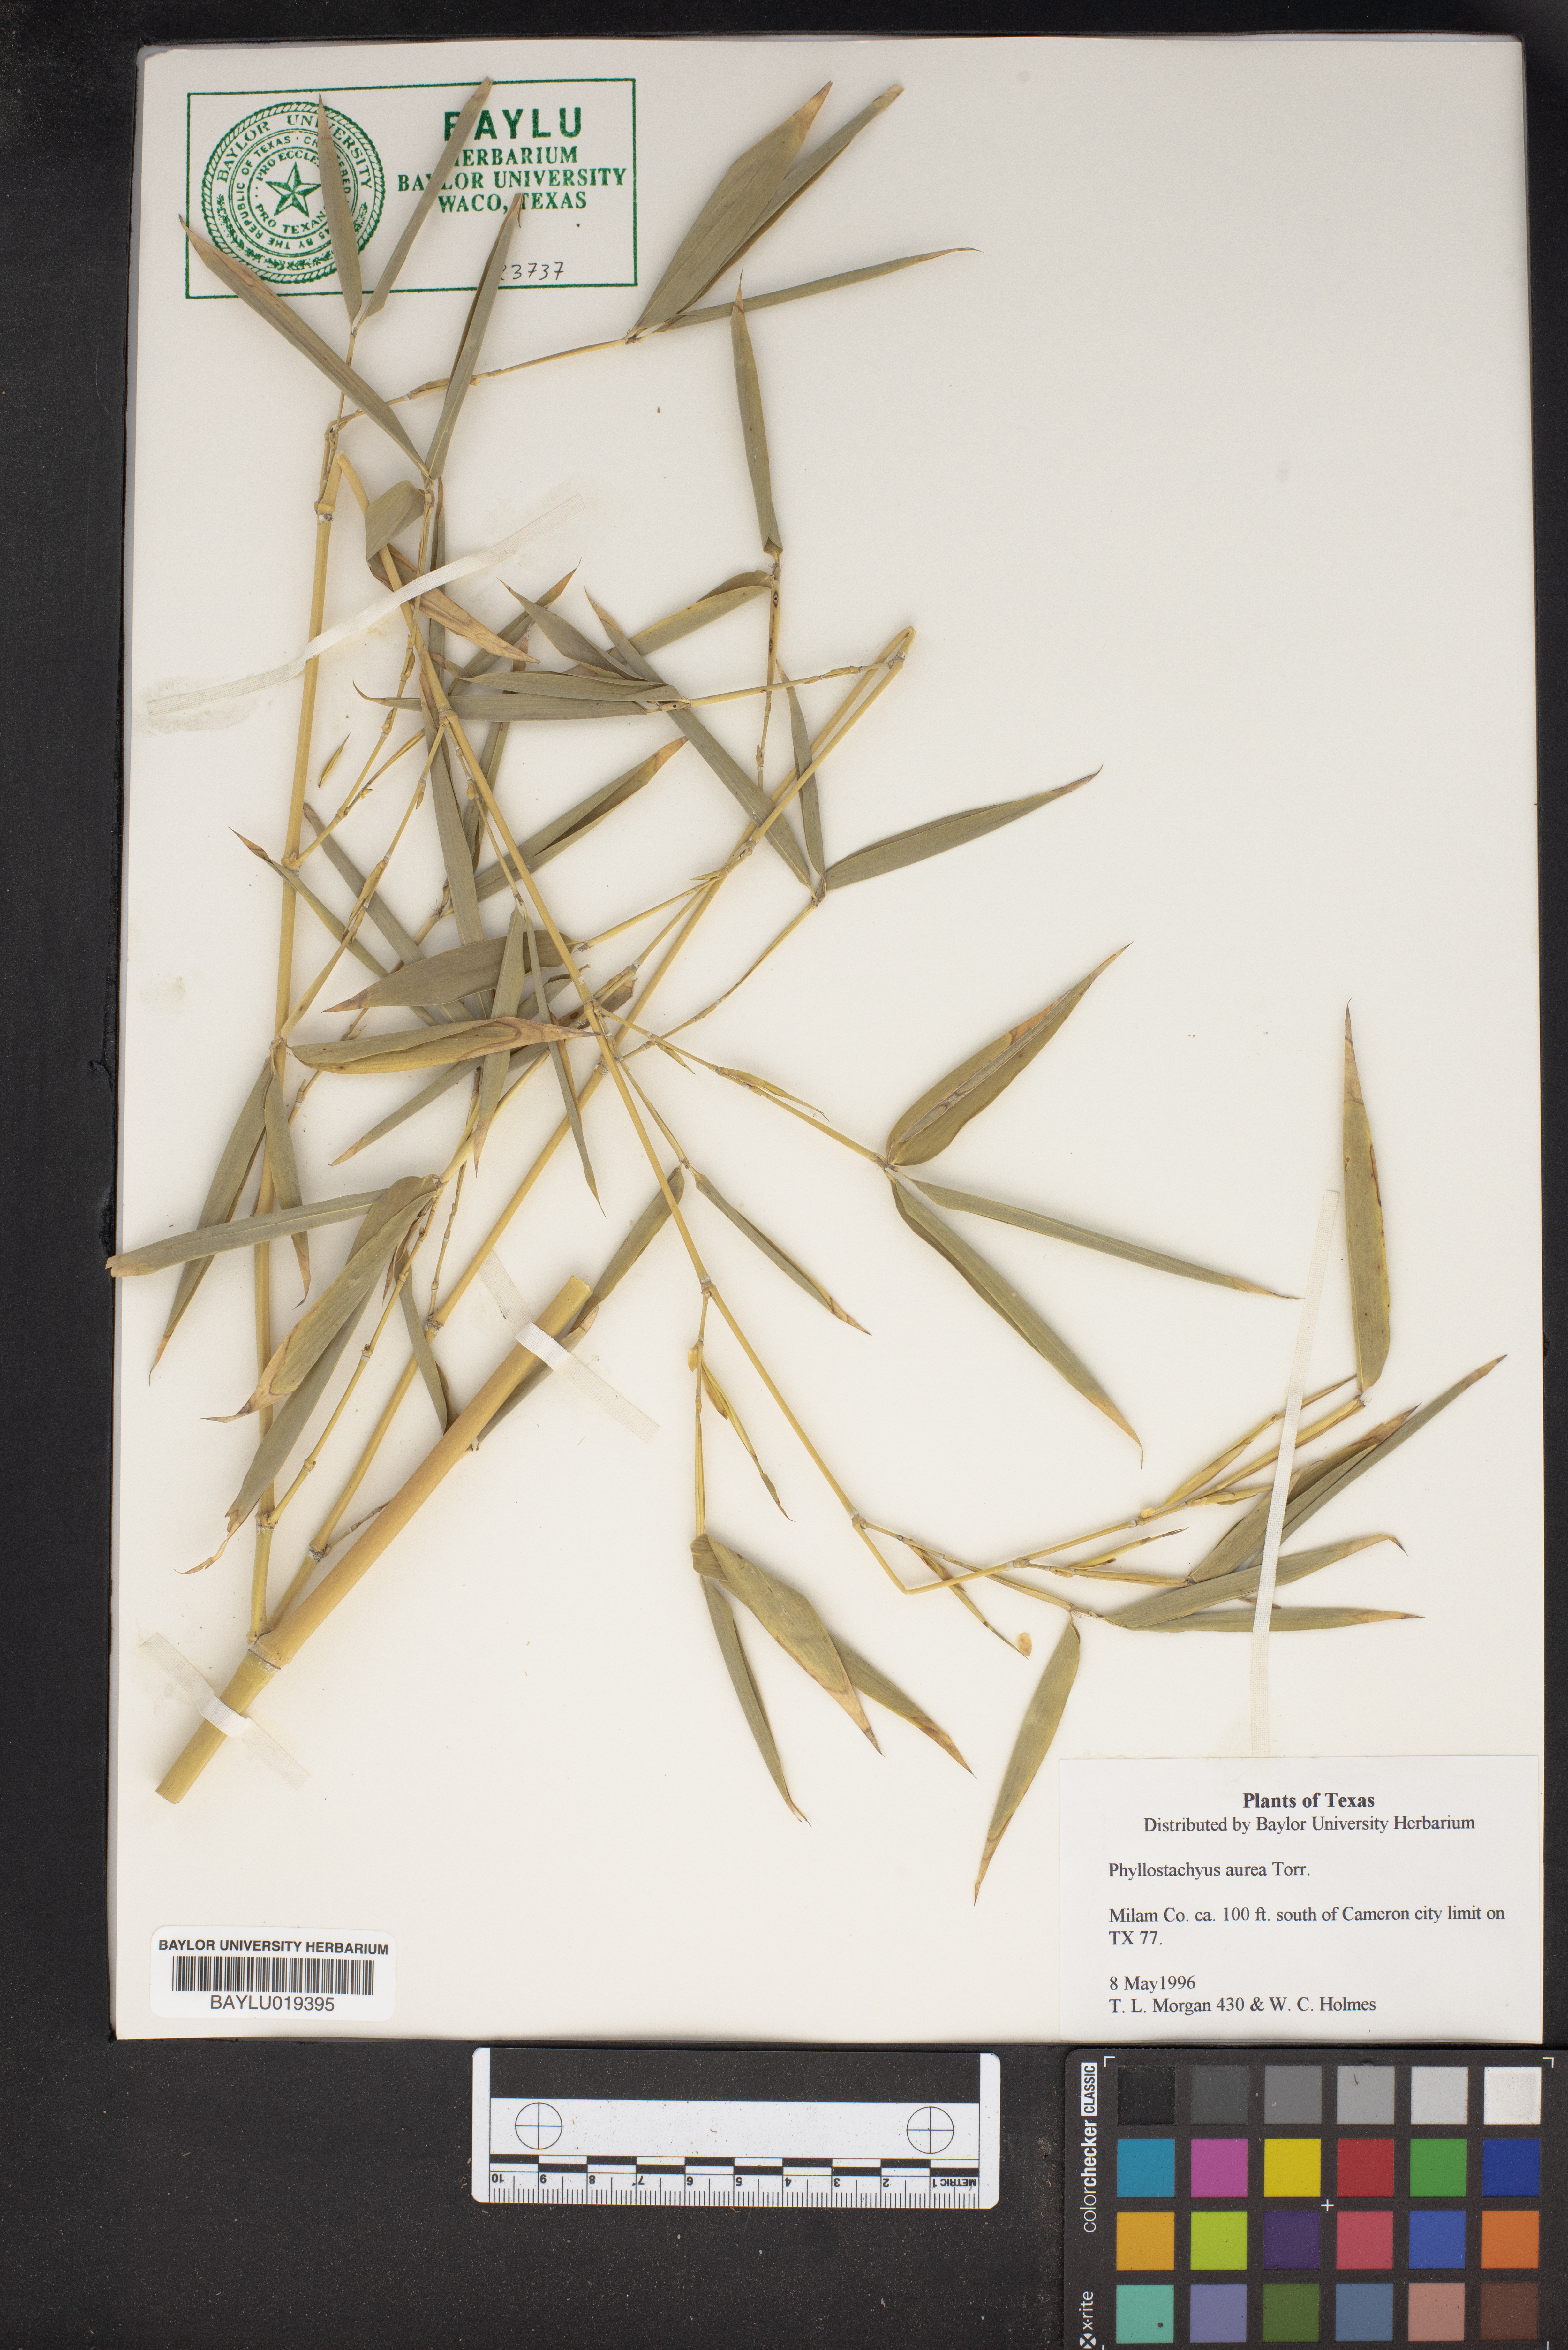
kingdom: Plantae
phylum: Tracheophyta
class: Liliopsida
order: Poales
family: Poaceae
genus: Phyllostachys
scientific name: Phyllostachys aurea
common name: Golden bamboo
